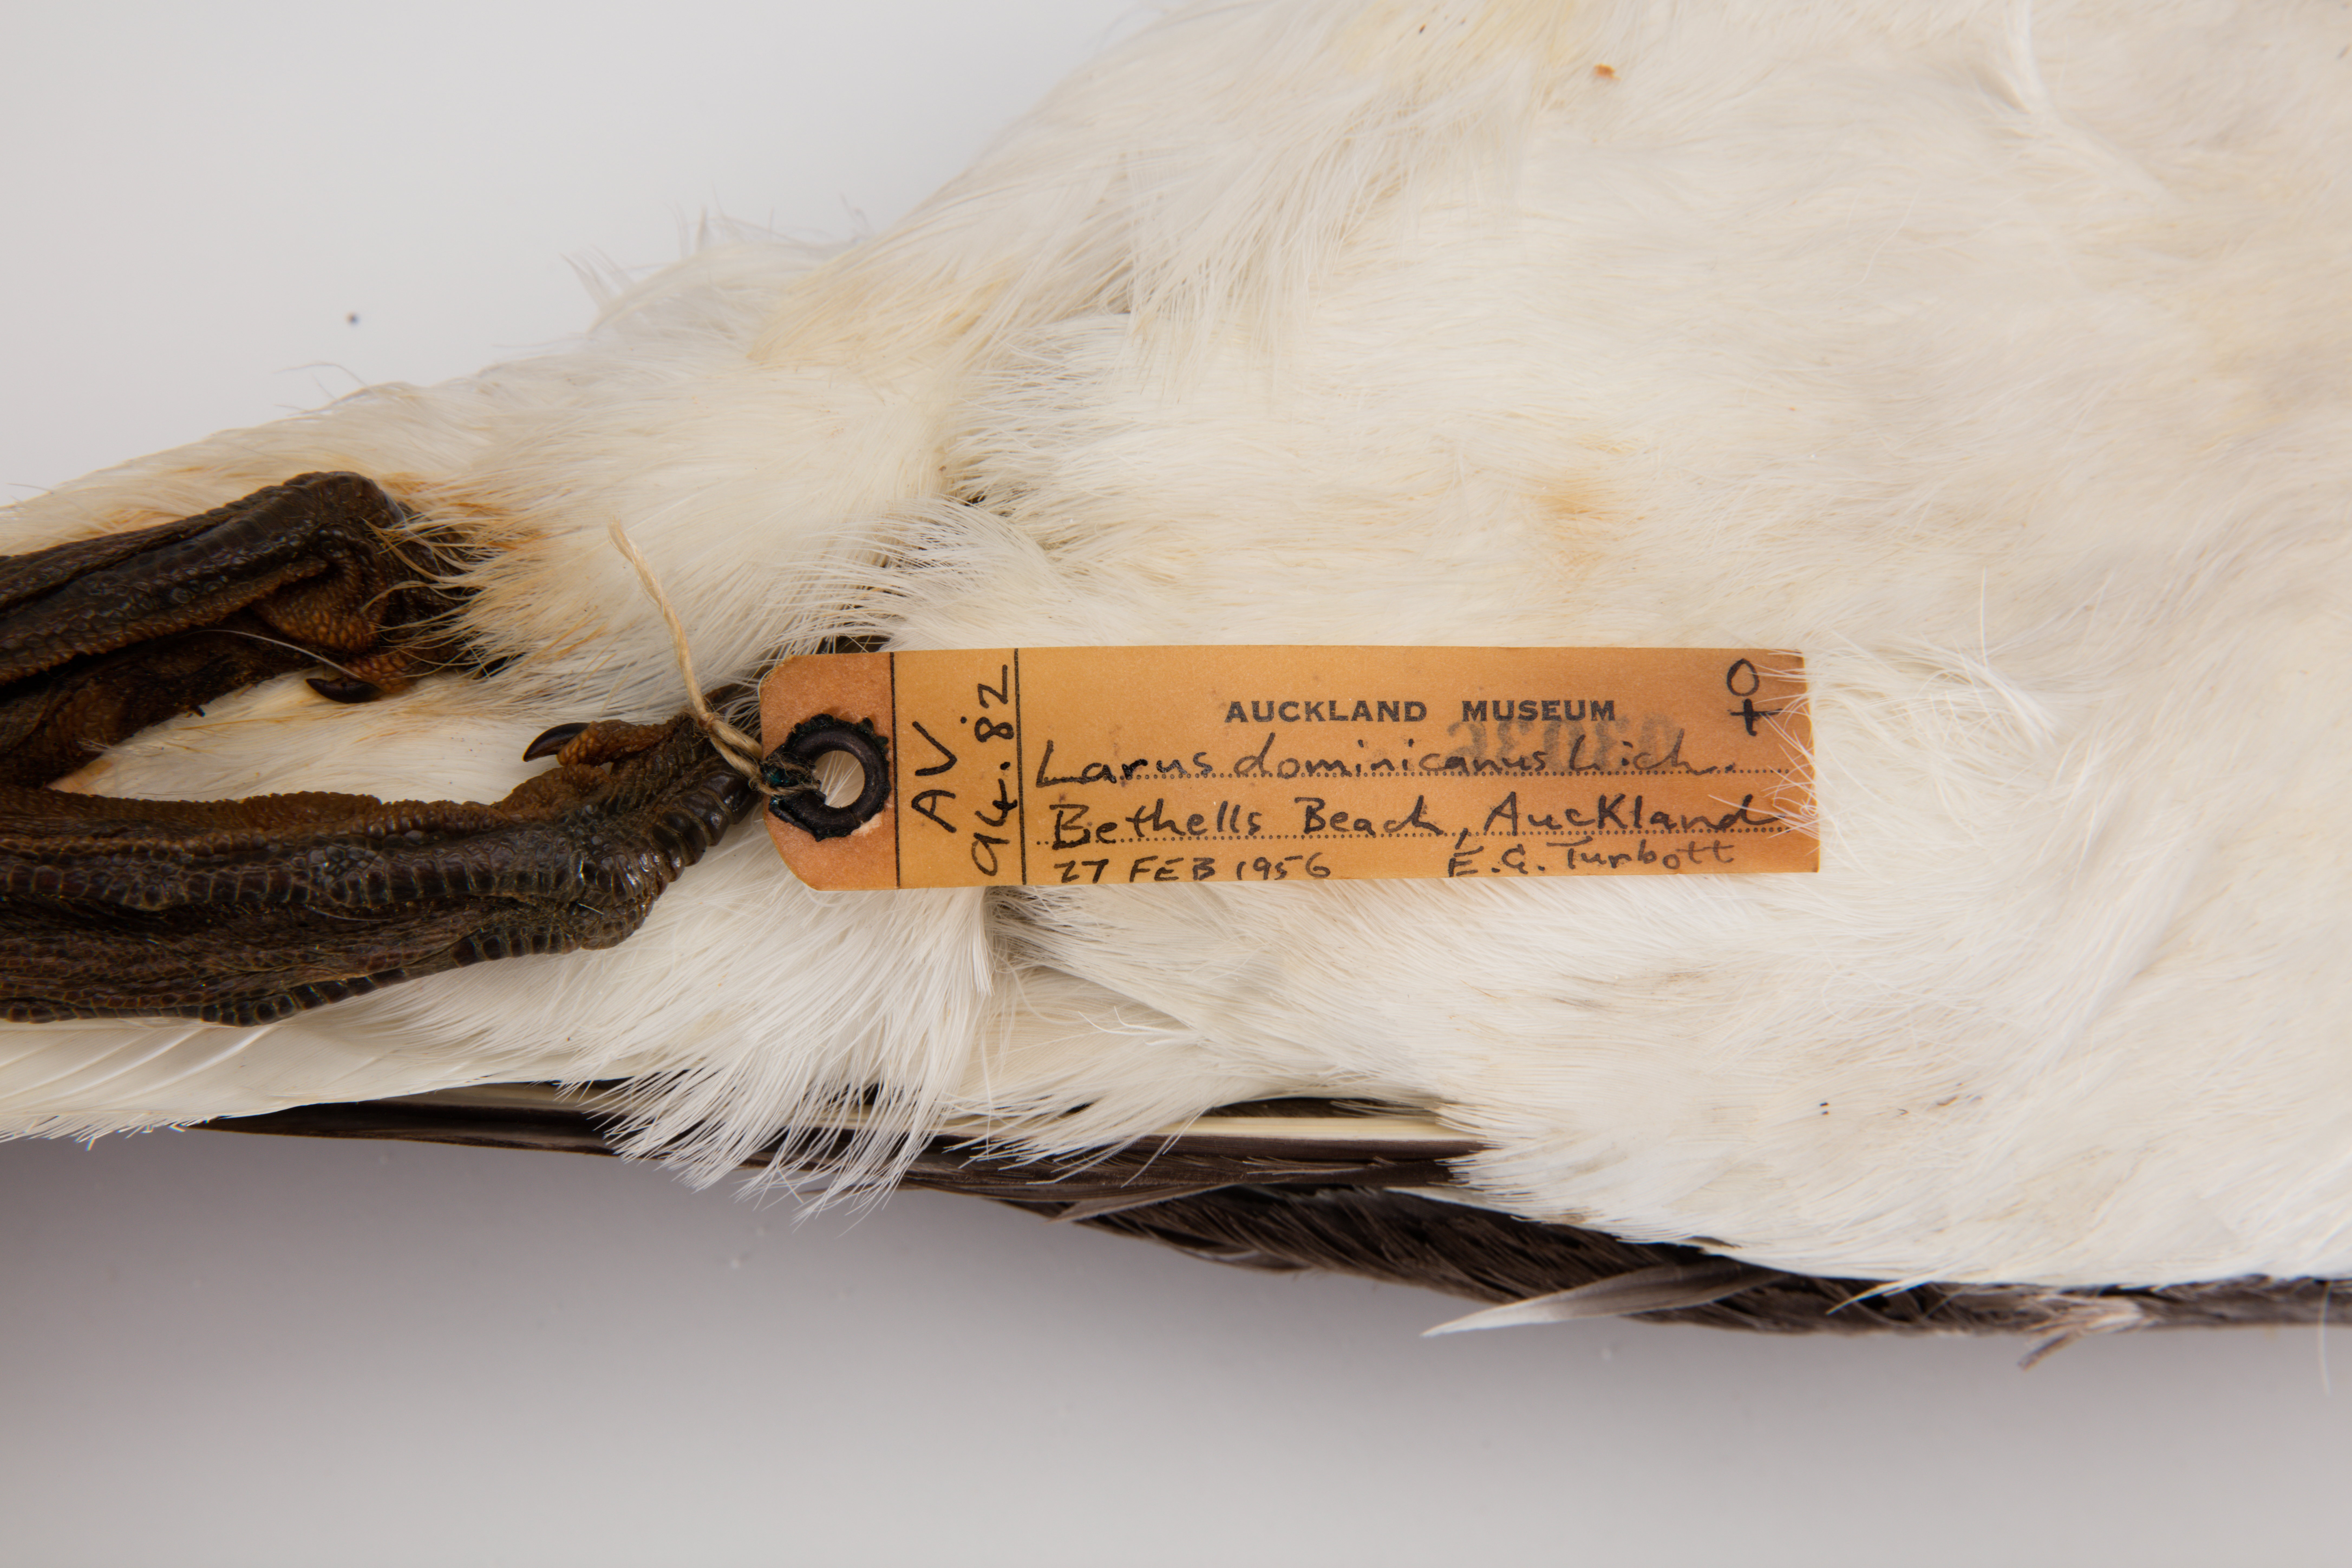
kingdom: Animalia
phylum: Chordata
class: Aves
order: Charadriiformes
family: Laridae
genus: Larus
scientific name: Larus dominicanus
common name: Kelp gull
